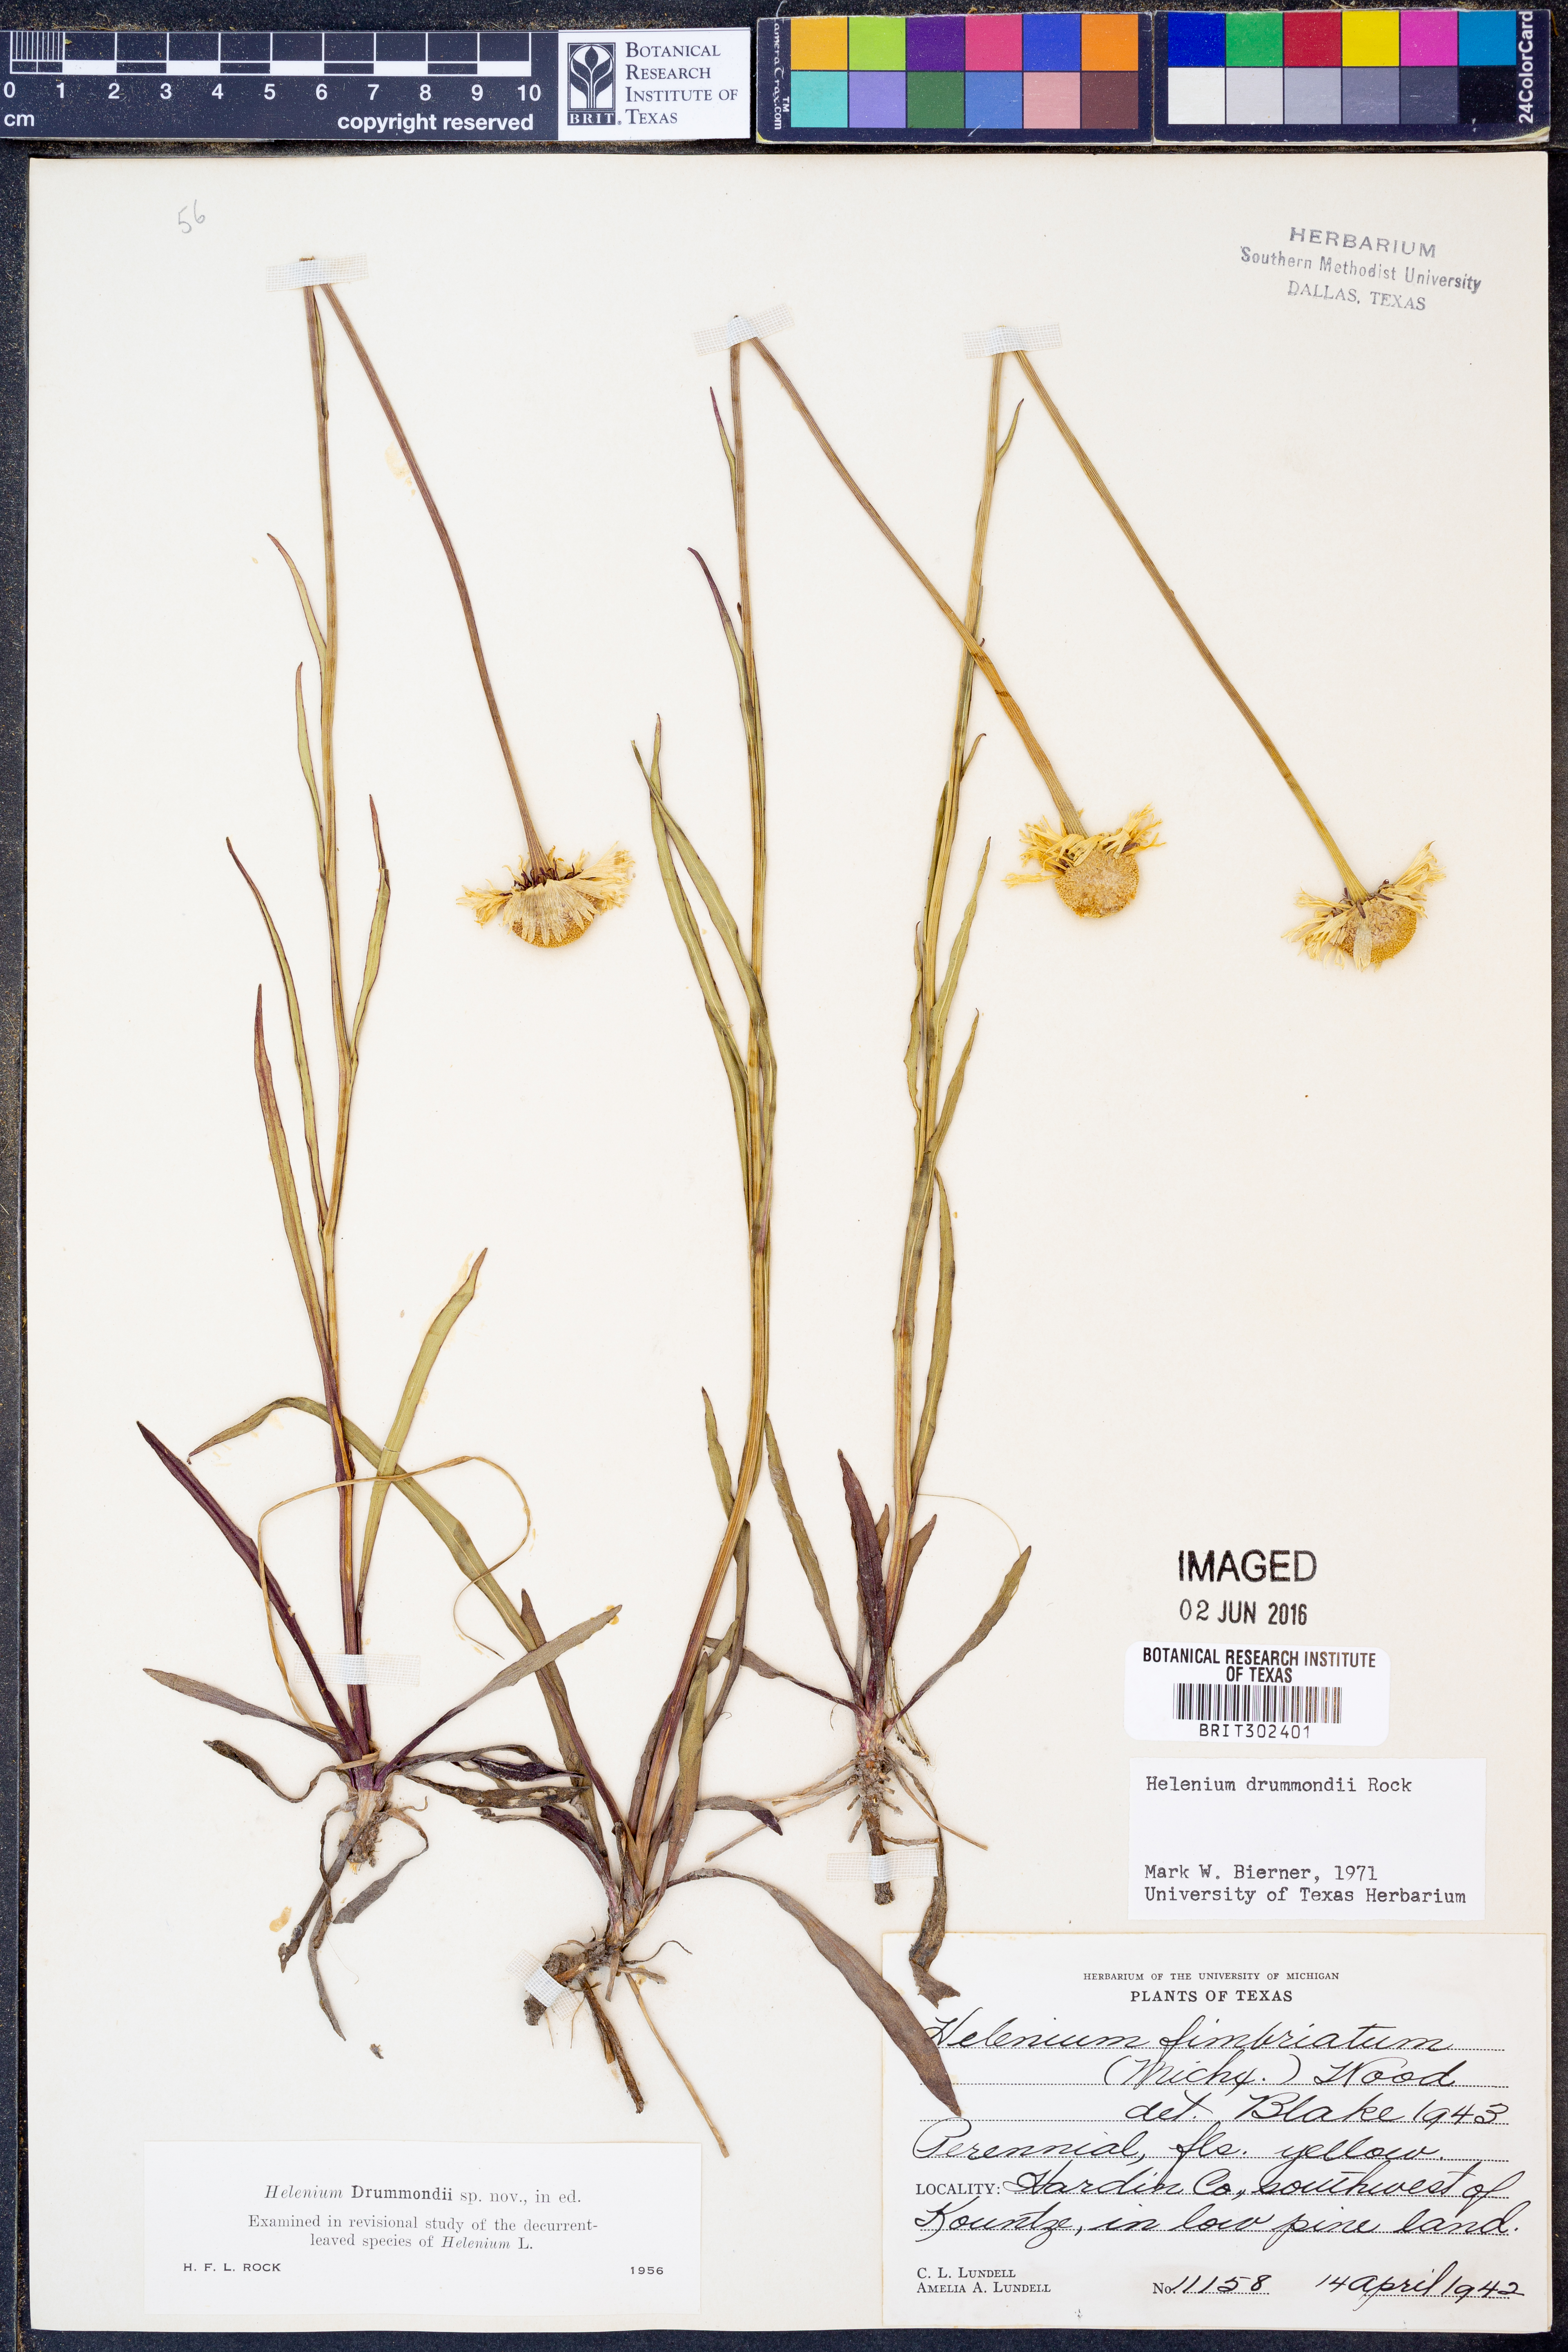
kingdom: Plantae
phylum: Tracheophyta
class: Magnoliopsida
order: Asterales
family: Asteraceae
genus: Helenium
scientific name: Helenium drummondii
